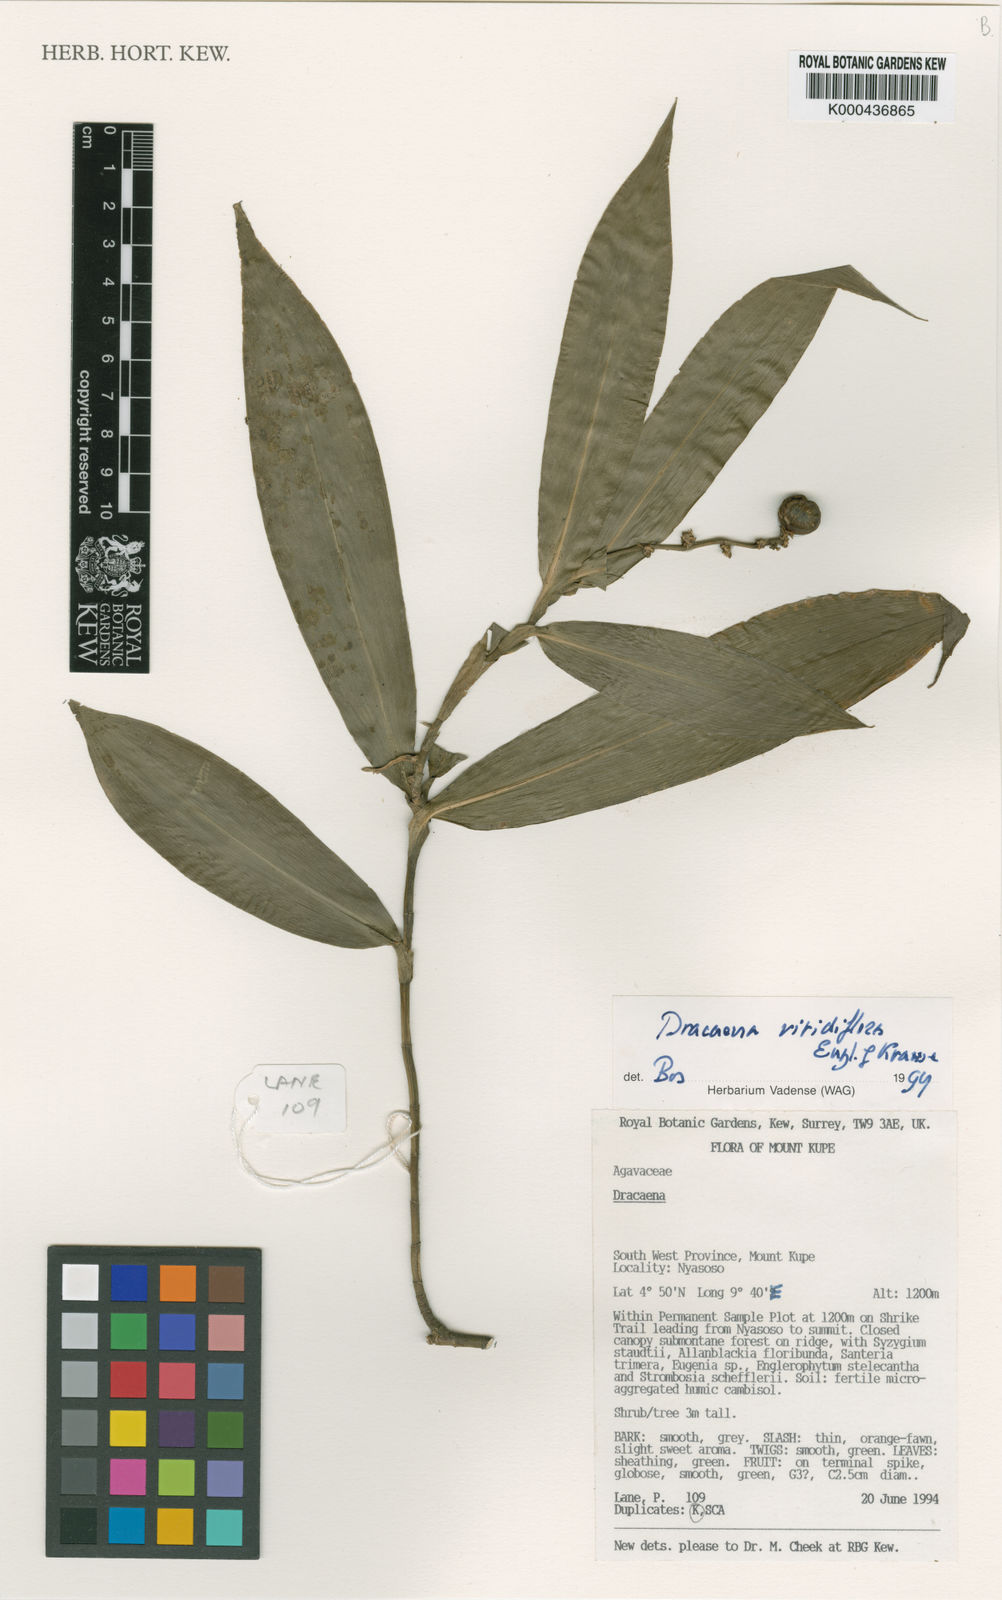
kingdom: Plantae
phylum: Tracheophyta
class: Liliopsida
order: Asparagales
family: Asparagaceae
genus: Dracaena
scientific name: Dracaena viridiflora
